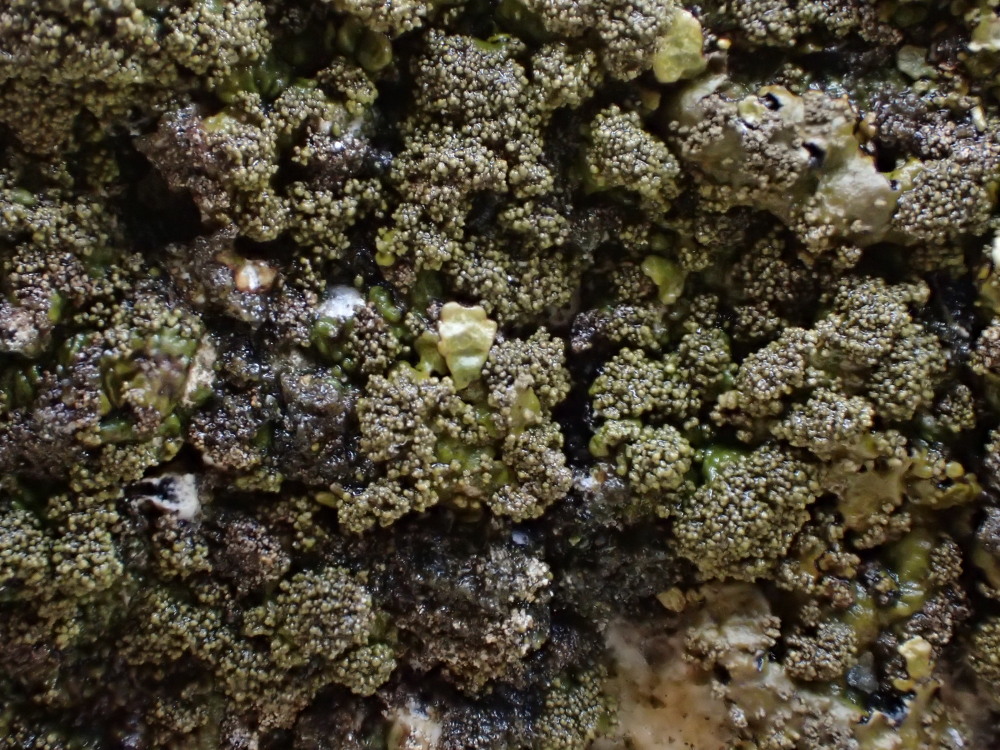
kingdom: Fungi
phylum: Ascomycota
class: Lecanoromycetes
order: Lecanorales
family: Parmeliaceae
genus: Xanthoparmelia
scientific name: Xanthoparmelia verruculifera
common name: småknoppet skållav
